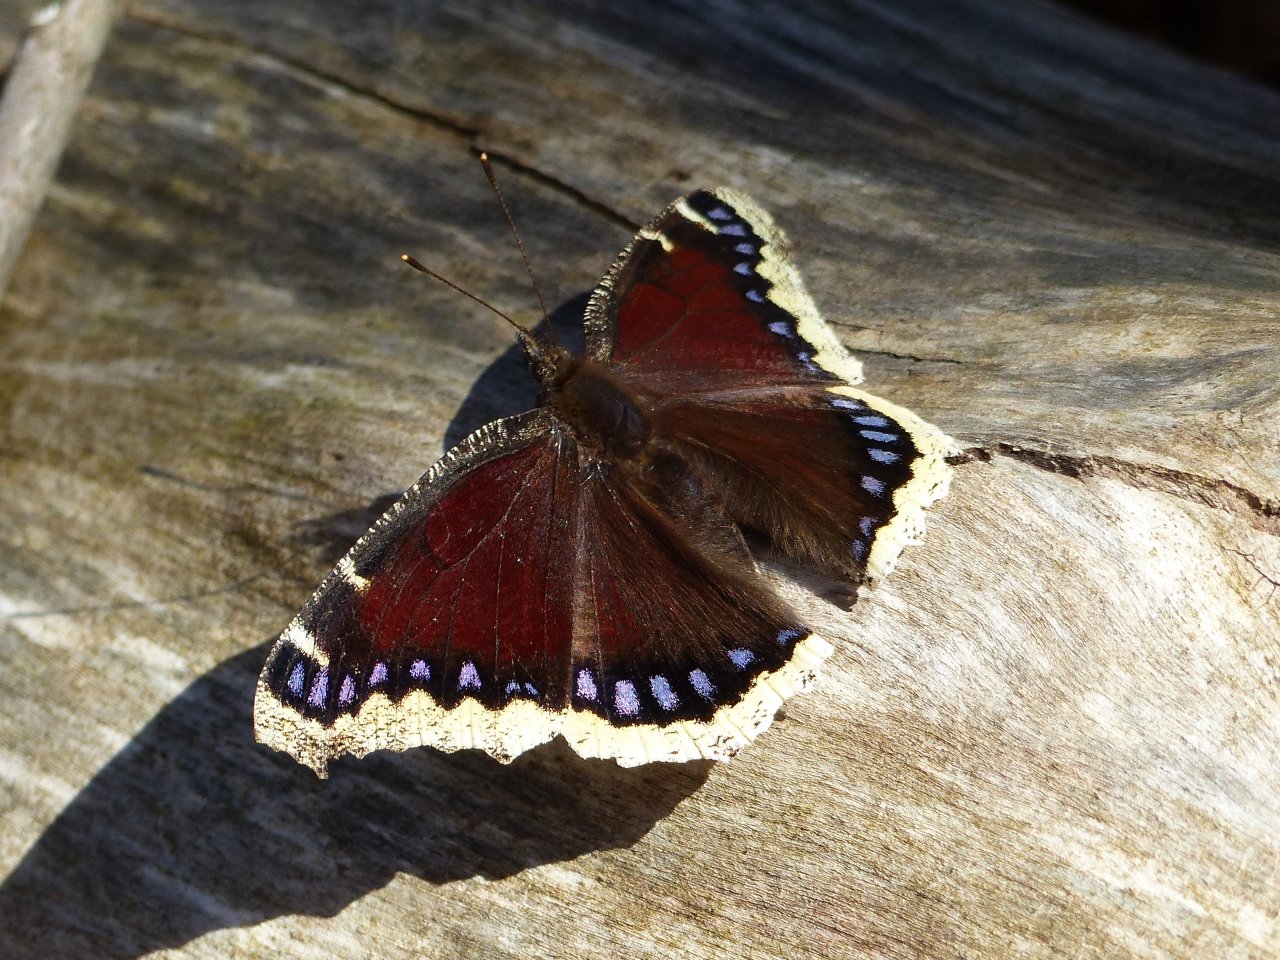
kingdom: Animalia
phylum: Arthropoda
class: Insecta
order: Lepidoptera
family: Nymphalidae
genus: Nymphalis
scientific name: Nymphalis antiopa
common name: Mourning Cloak
